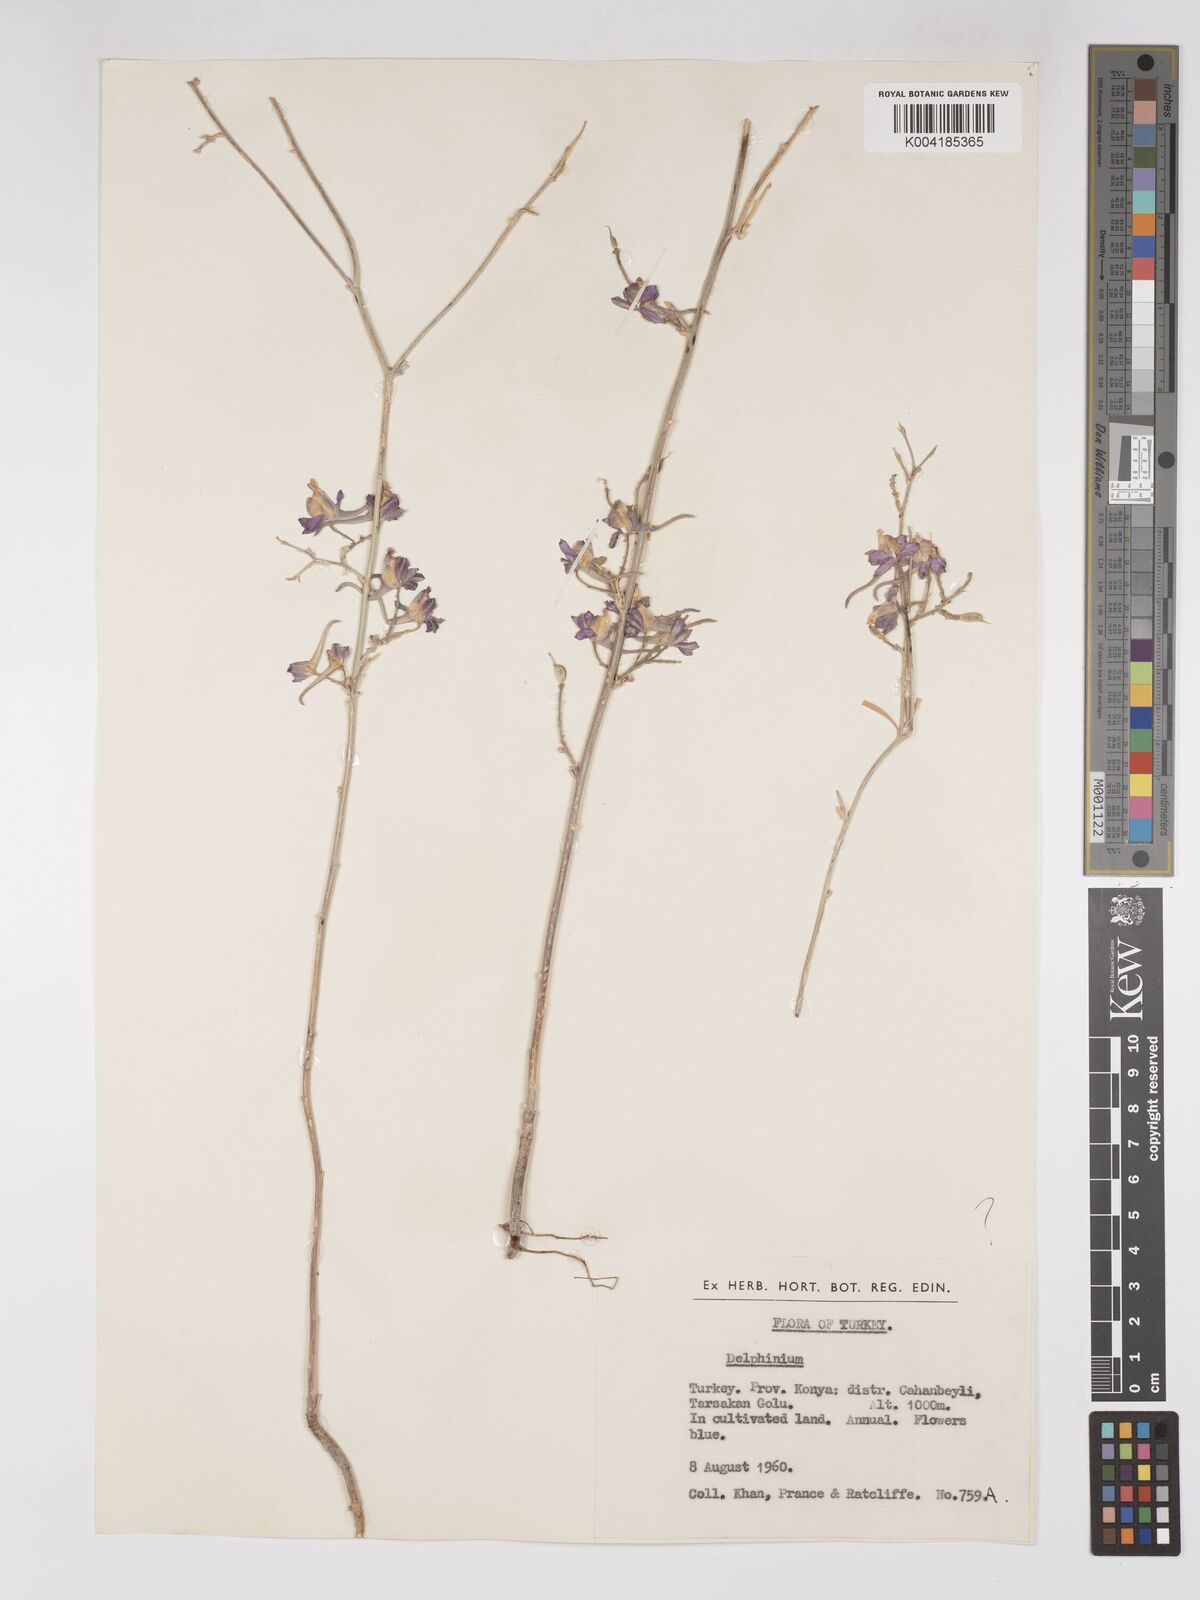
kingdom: Plantae
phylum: Tracheophyta
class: Magnoliopsida
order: Ranunculales
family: Ranunculaceae
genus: Delphinium
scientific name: Delphinium
